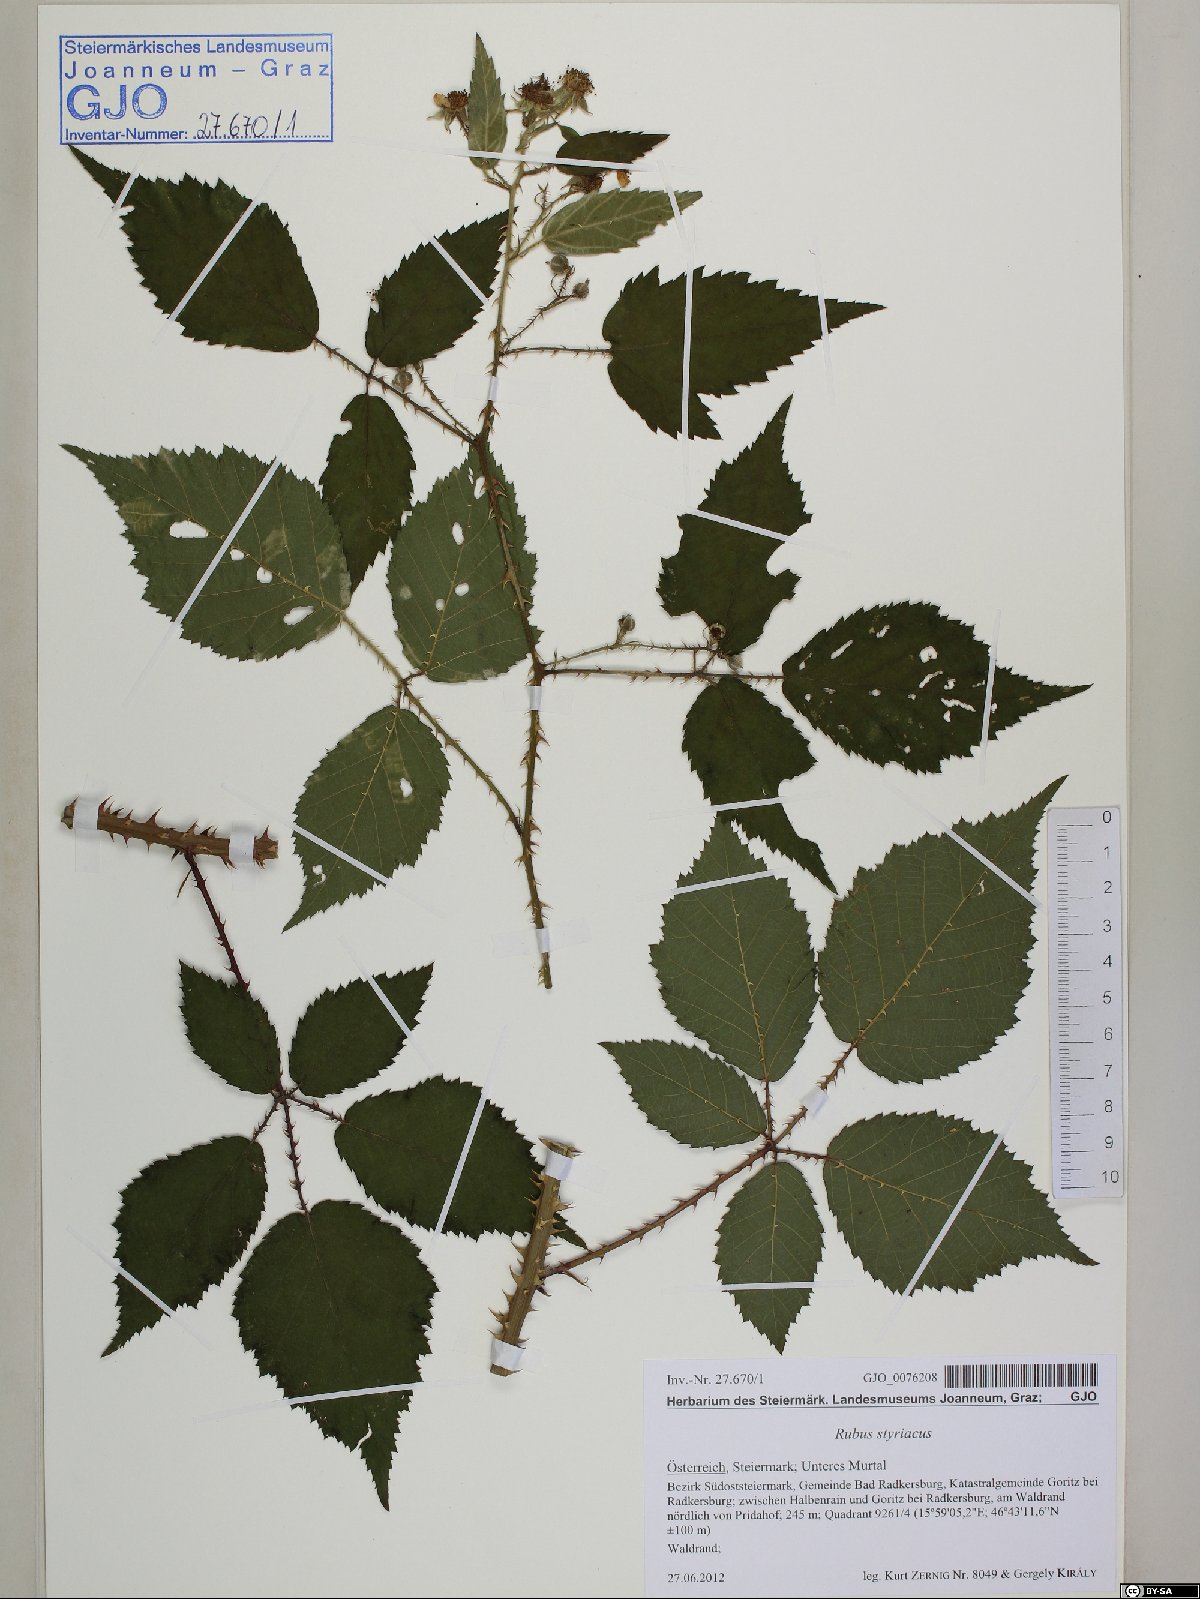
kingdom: Plantae
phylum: Tracheophyta
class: Magnoliopsida
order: Rosales
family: Rosaceae
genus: Rubus
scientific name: Rubus styriacus
